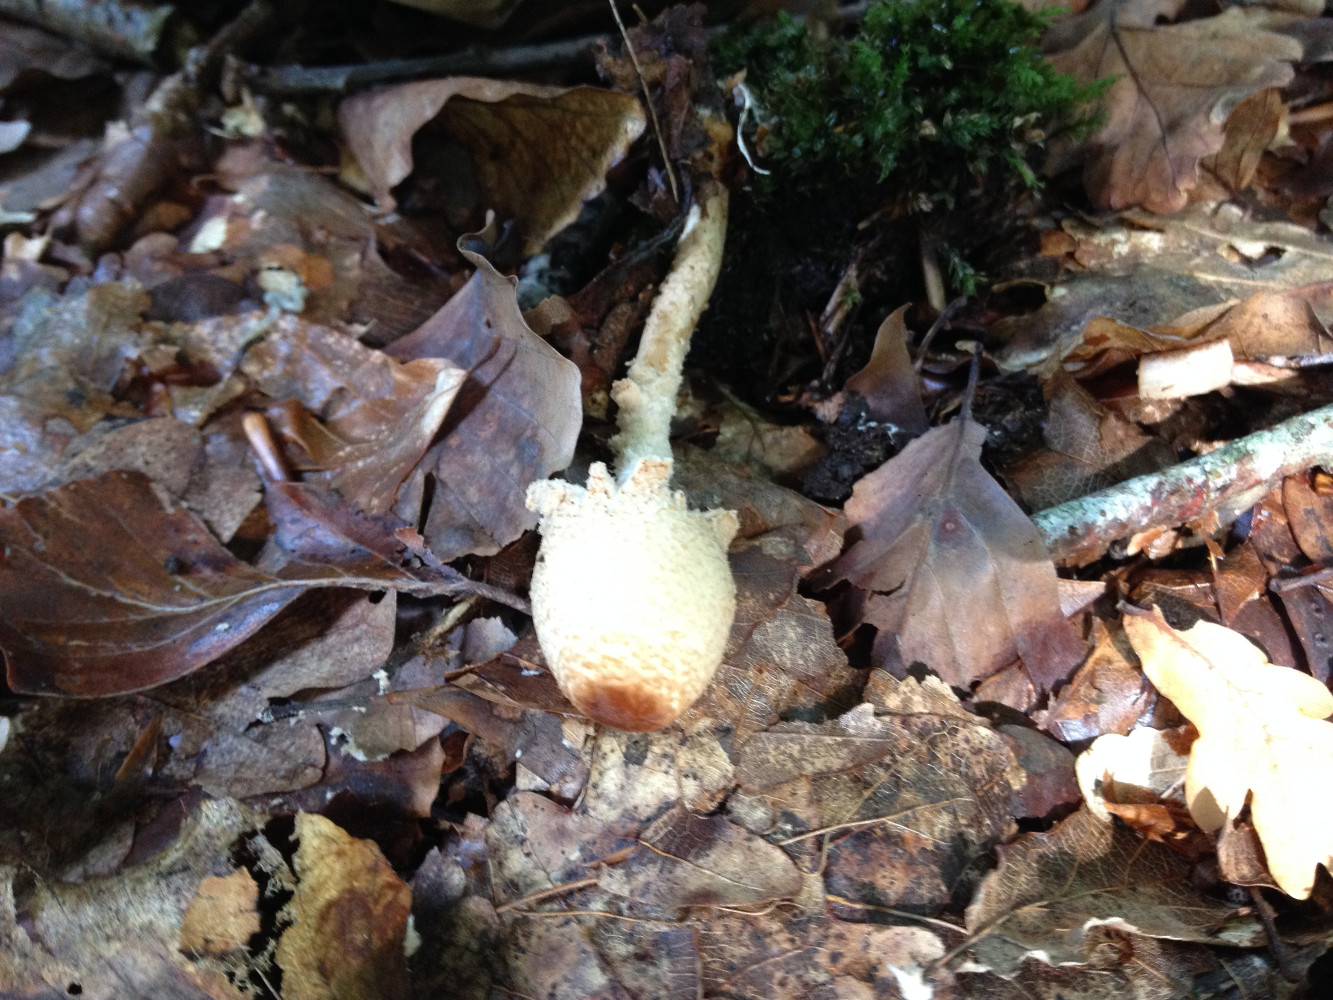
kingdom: Fungi
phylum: Basidiomycota
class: Agaricomycetes
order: Agaricales
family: Agaricaceae
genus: Lepiota
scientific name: Lepiota magnispora
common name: gulfnugget parasolhat
